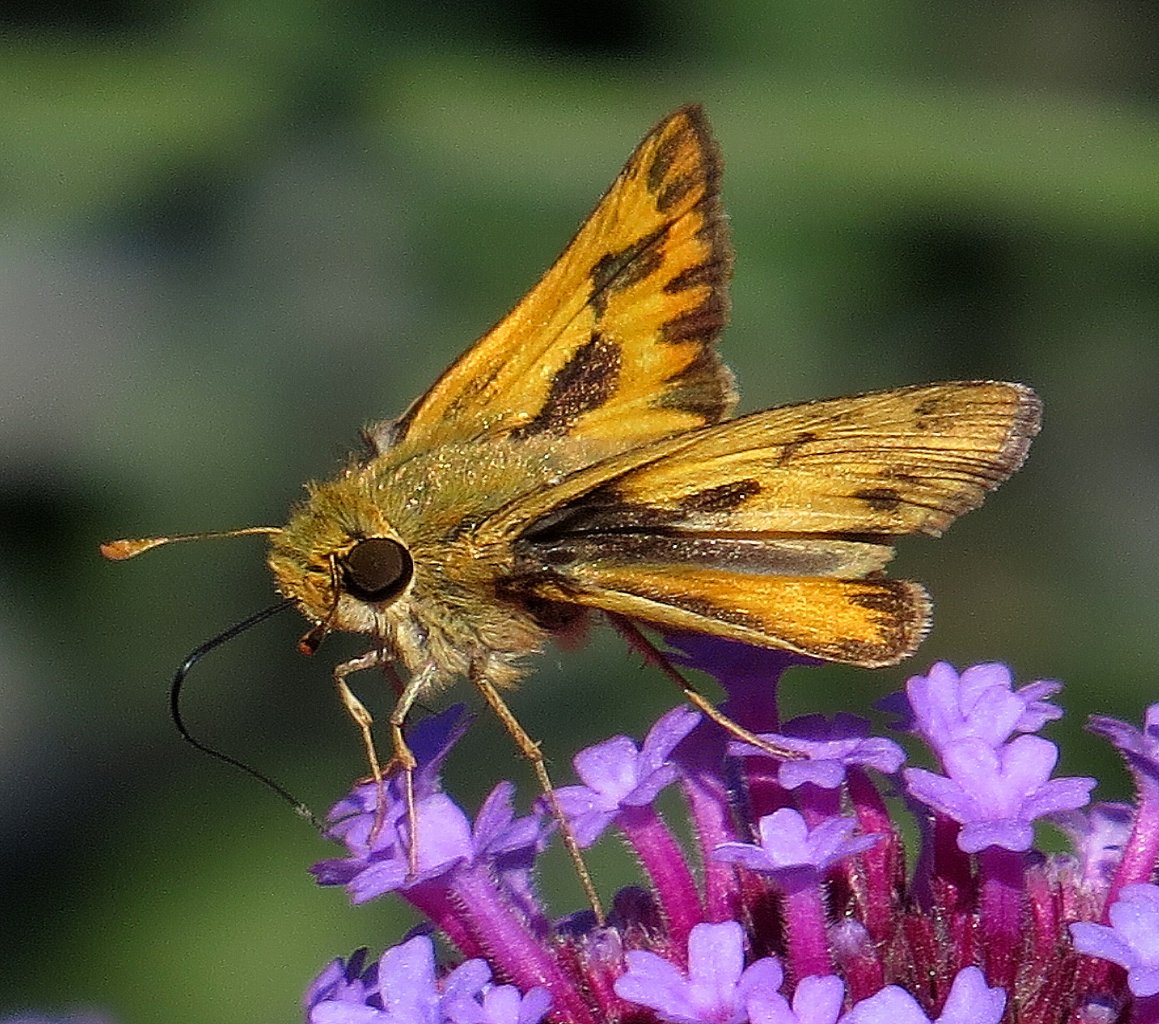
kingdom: Animalia
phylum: Arthropoda
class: Insecta
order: Lepidoptera
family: Hesperiidae
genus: Hylephila
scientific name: Hylephila phyleus
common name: Fiery Skipper
